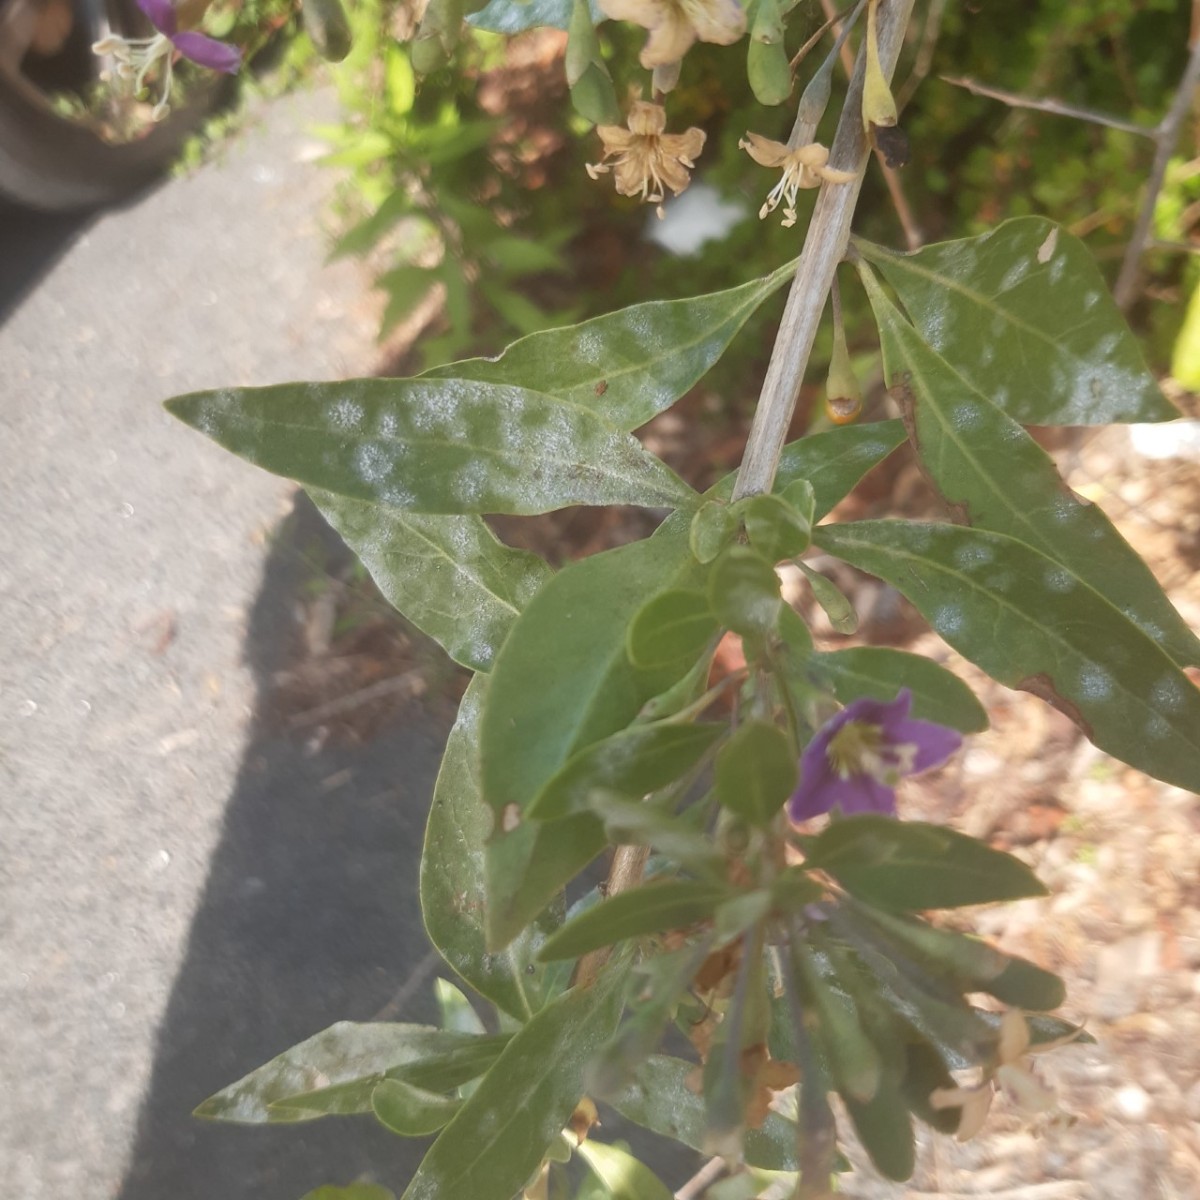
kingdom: Fungi
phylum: Ascomycota
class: Leotiomycetes
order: Helotiales
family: Erysiphaceae
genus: Erysiphe
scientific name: Erysiphe mougeotii
